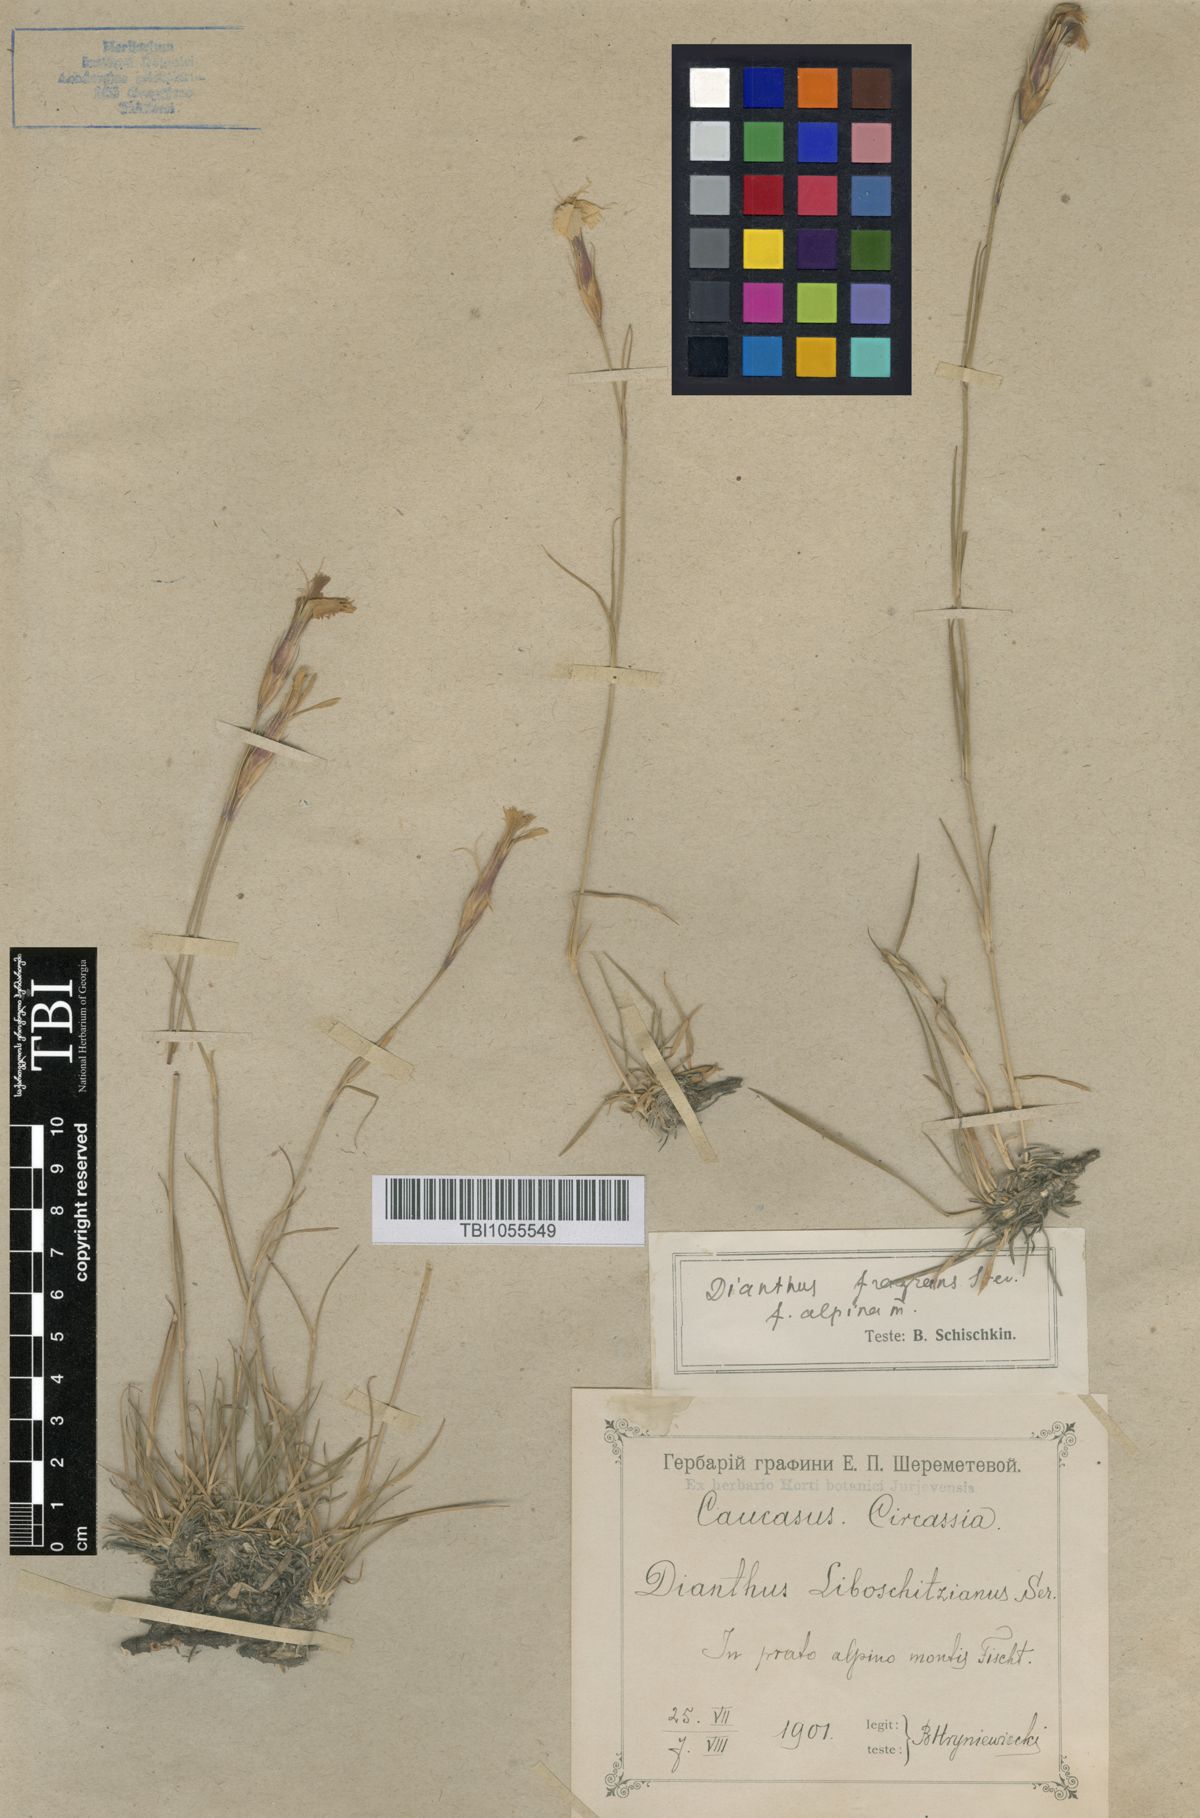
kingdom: Plantae
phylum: Tracheophyta
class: Magnoliopsida
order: Caryophyllales
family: Caryophyllaceae
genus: Dianthus
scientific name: Dianthus
